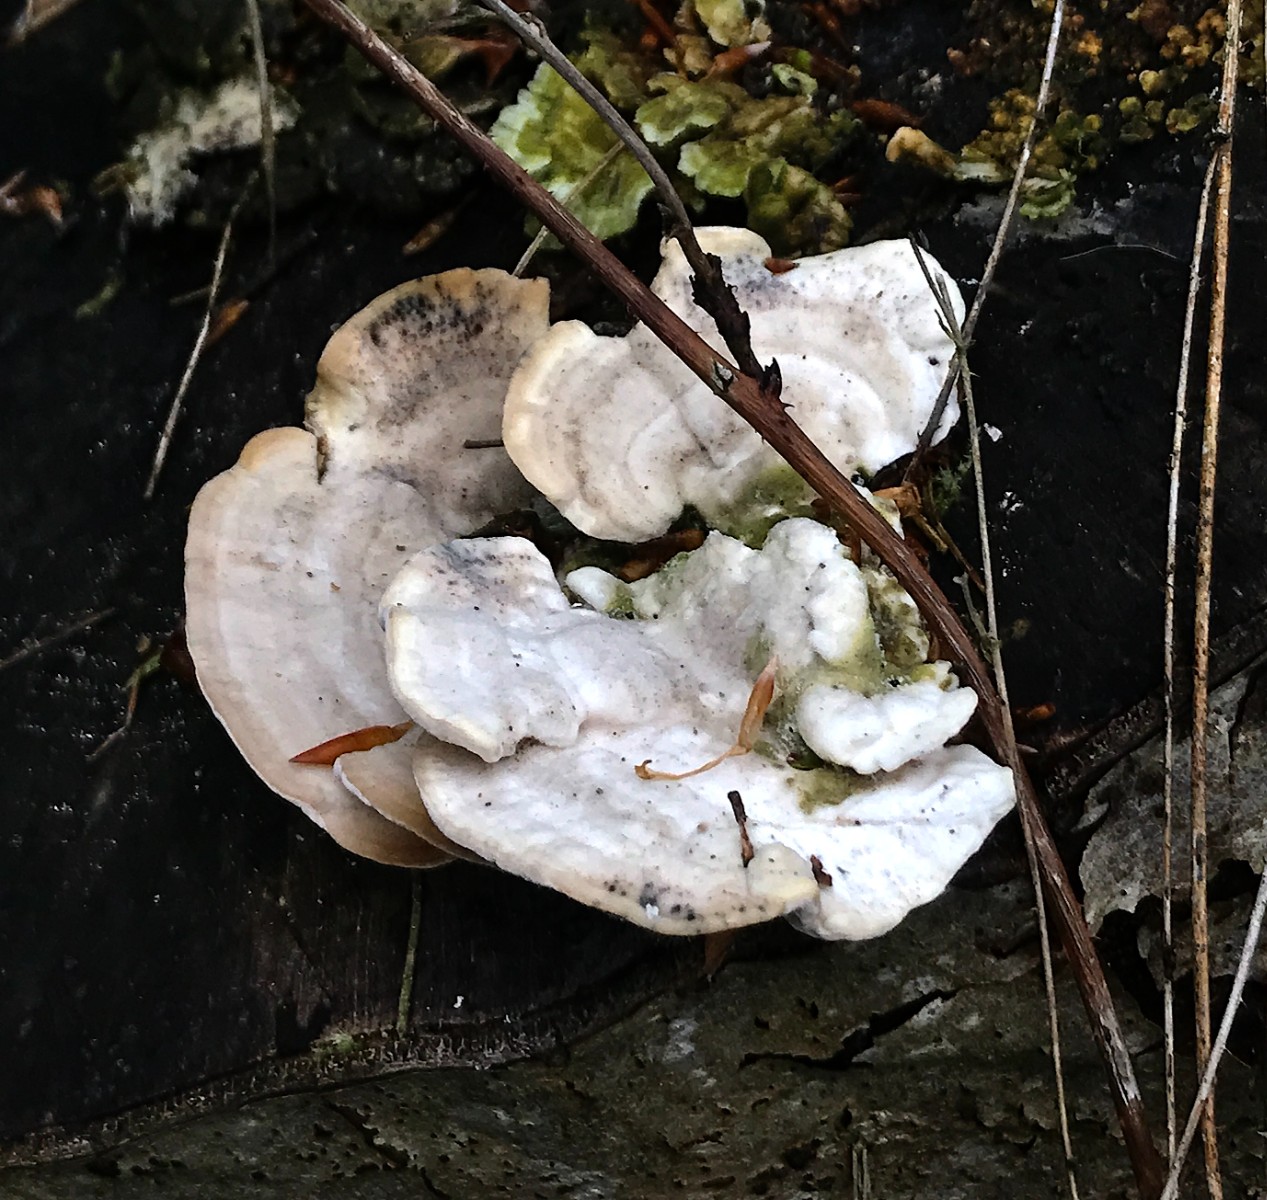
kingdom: Fungi
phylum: Basidiomycota
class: Agaricomycetes
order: Polyporales
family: Polyporaceae
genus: Trametes
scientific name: Trametes gibbosa
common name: puklet læderporesvamp
